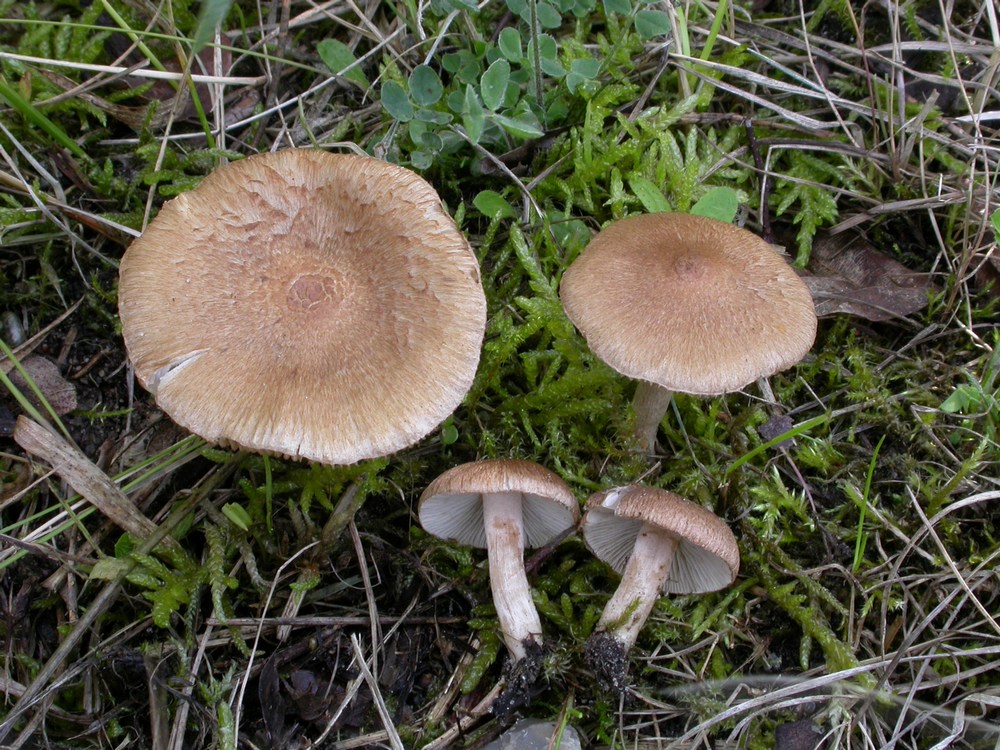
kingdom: Fungi
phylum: Basidiomycota
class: Agaricomycetes
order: Agaricales
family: Inocybaceae
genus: Inocybe
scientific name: Inocybe
